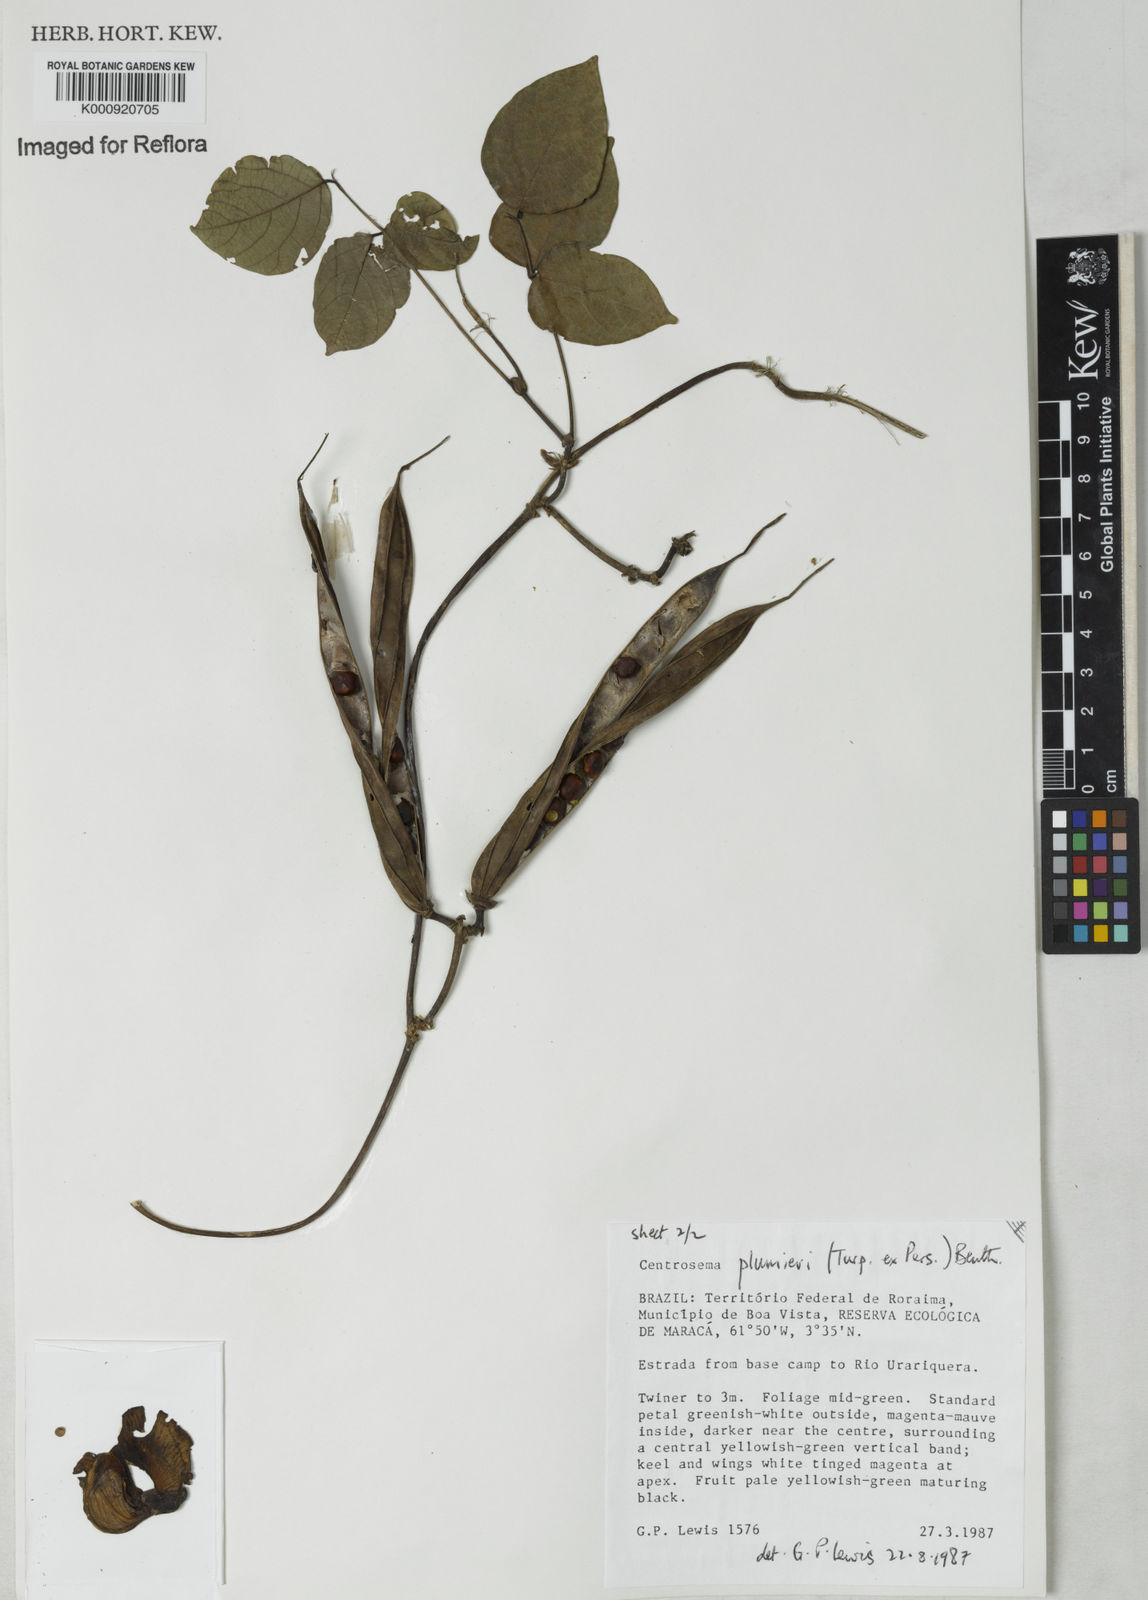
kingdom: Plantae
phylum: Tracheophyta
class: Magnoliopsida
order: Fabales
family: Fabaceae
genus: Centrosema
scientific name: Centrosema plumieri
